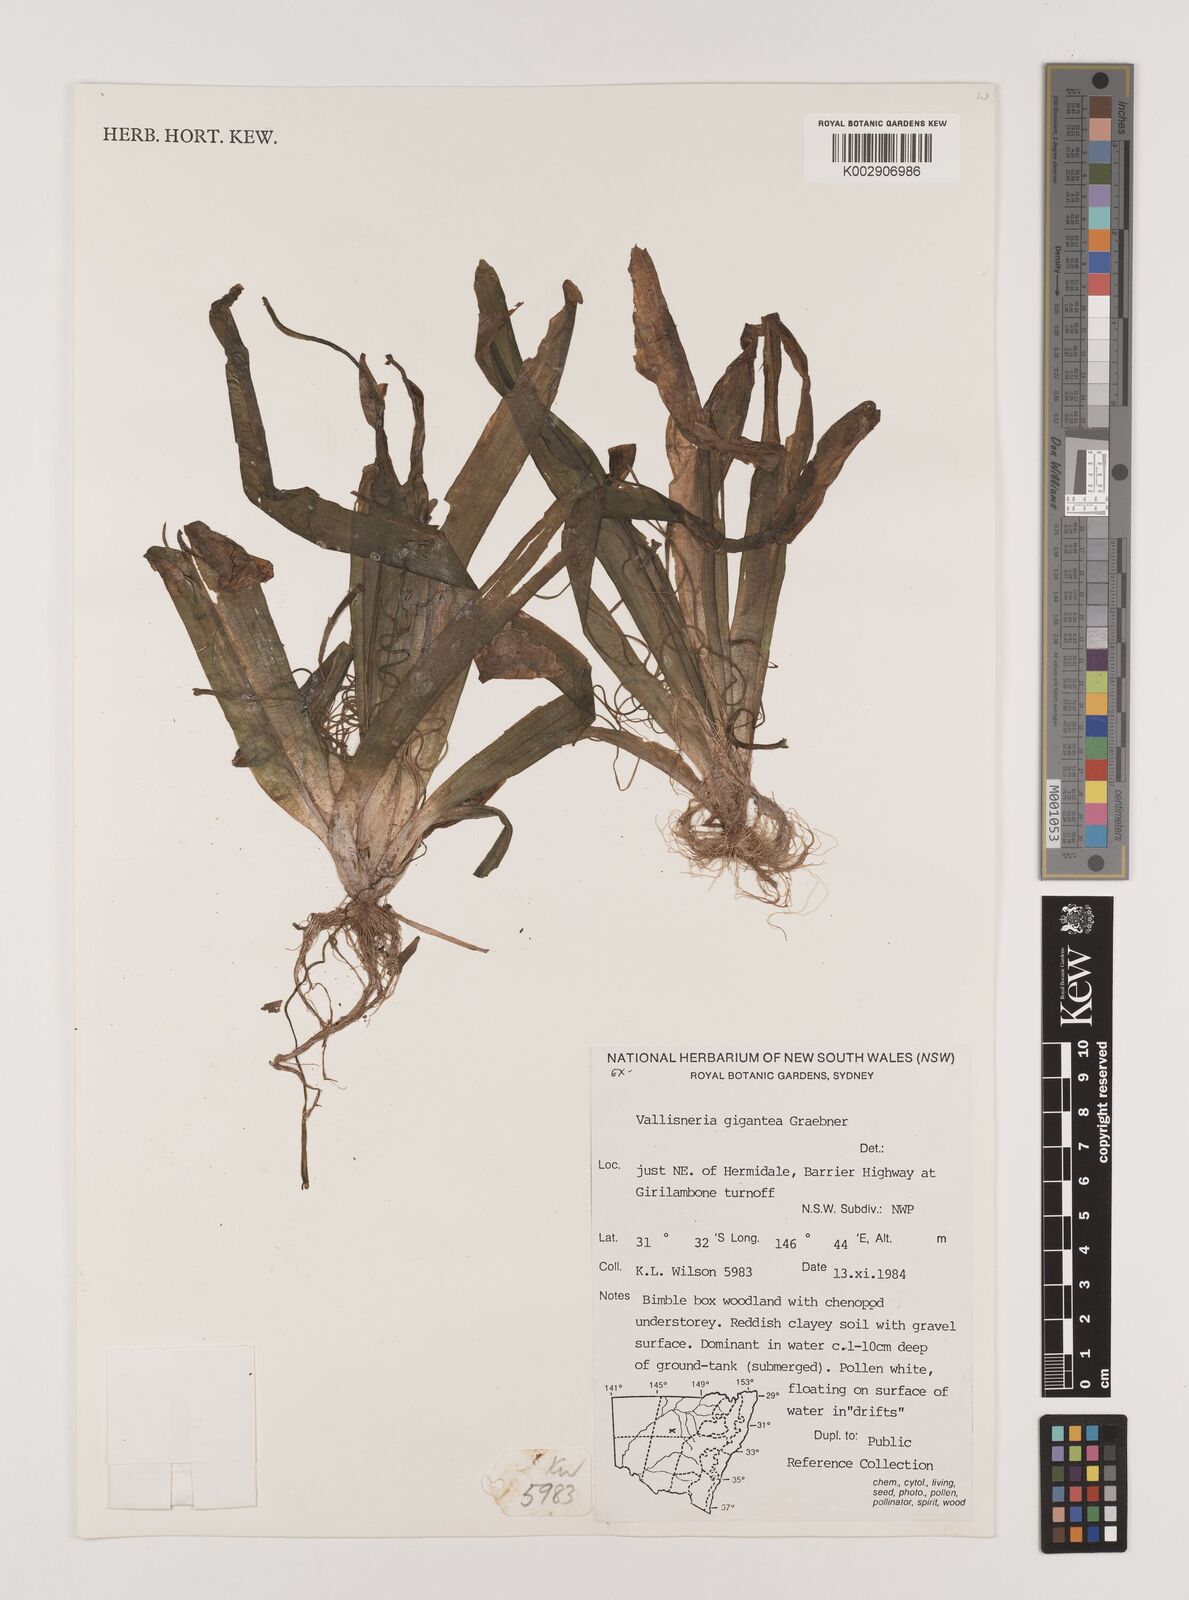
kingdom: Plantae
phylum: Tracheophyta
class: Liliopsida
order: Alismatales
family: Hydrocharitaceae
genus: Vallisneria
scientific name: Vallisneria nana
